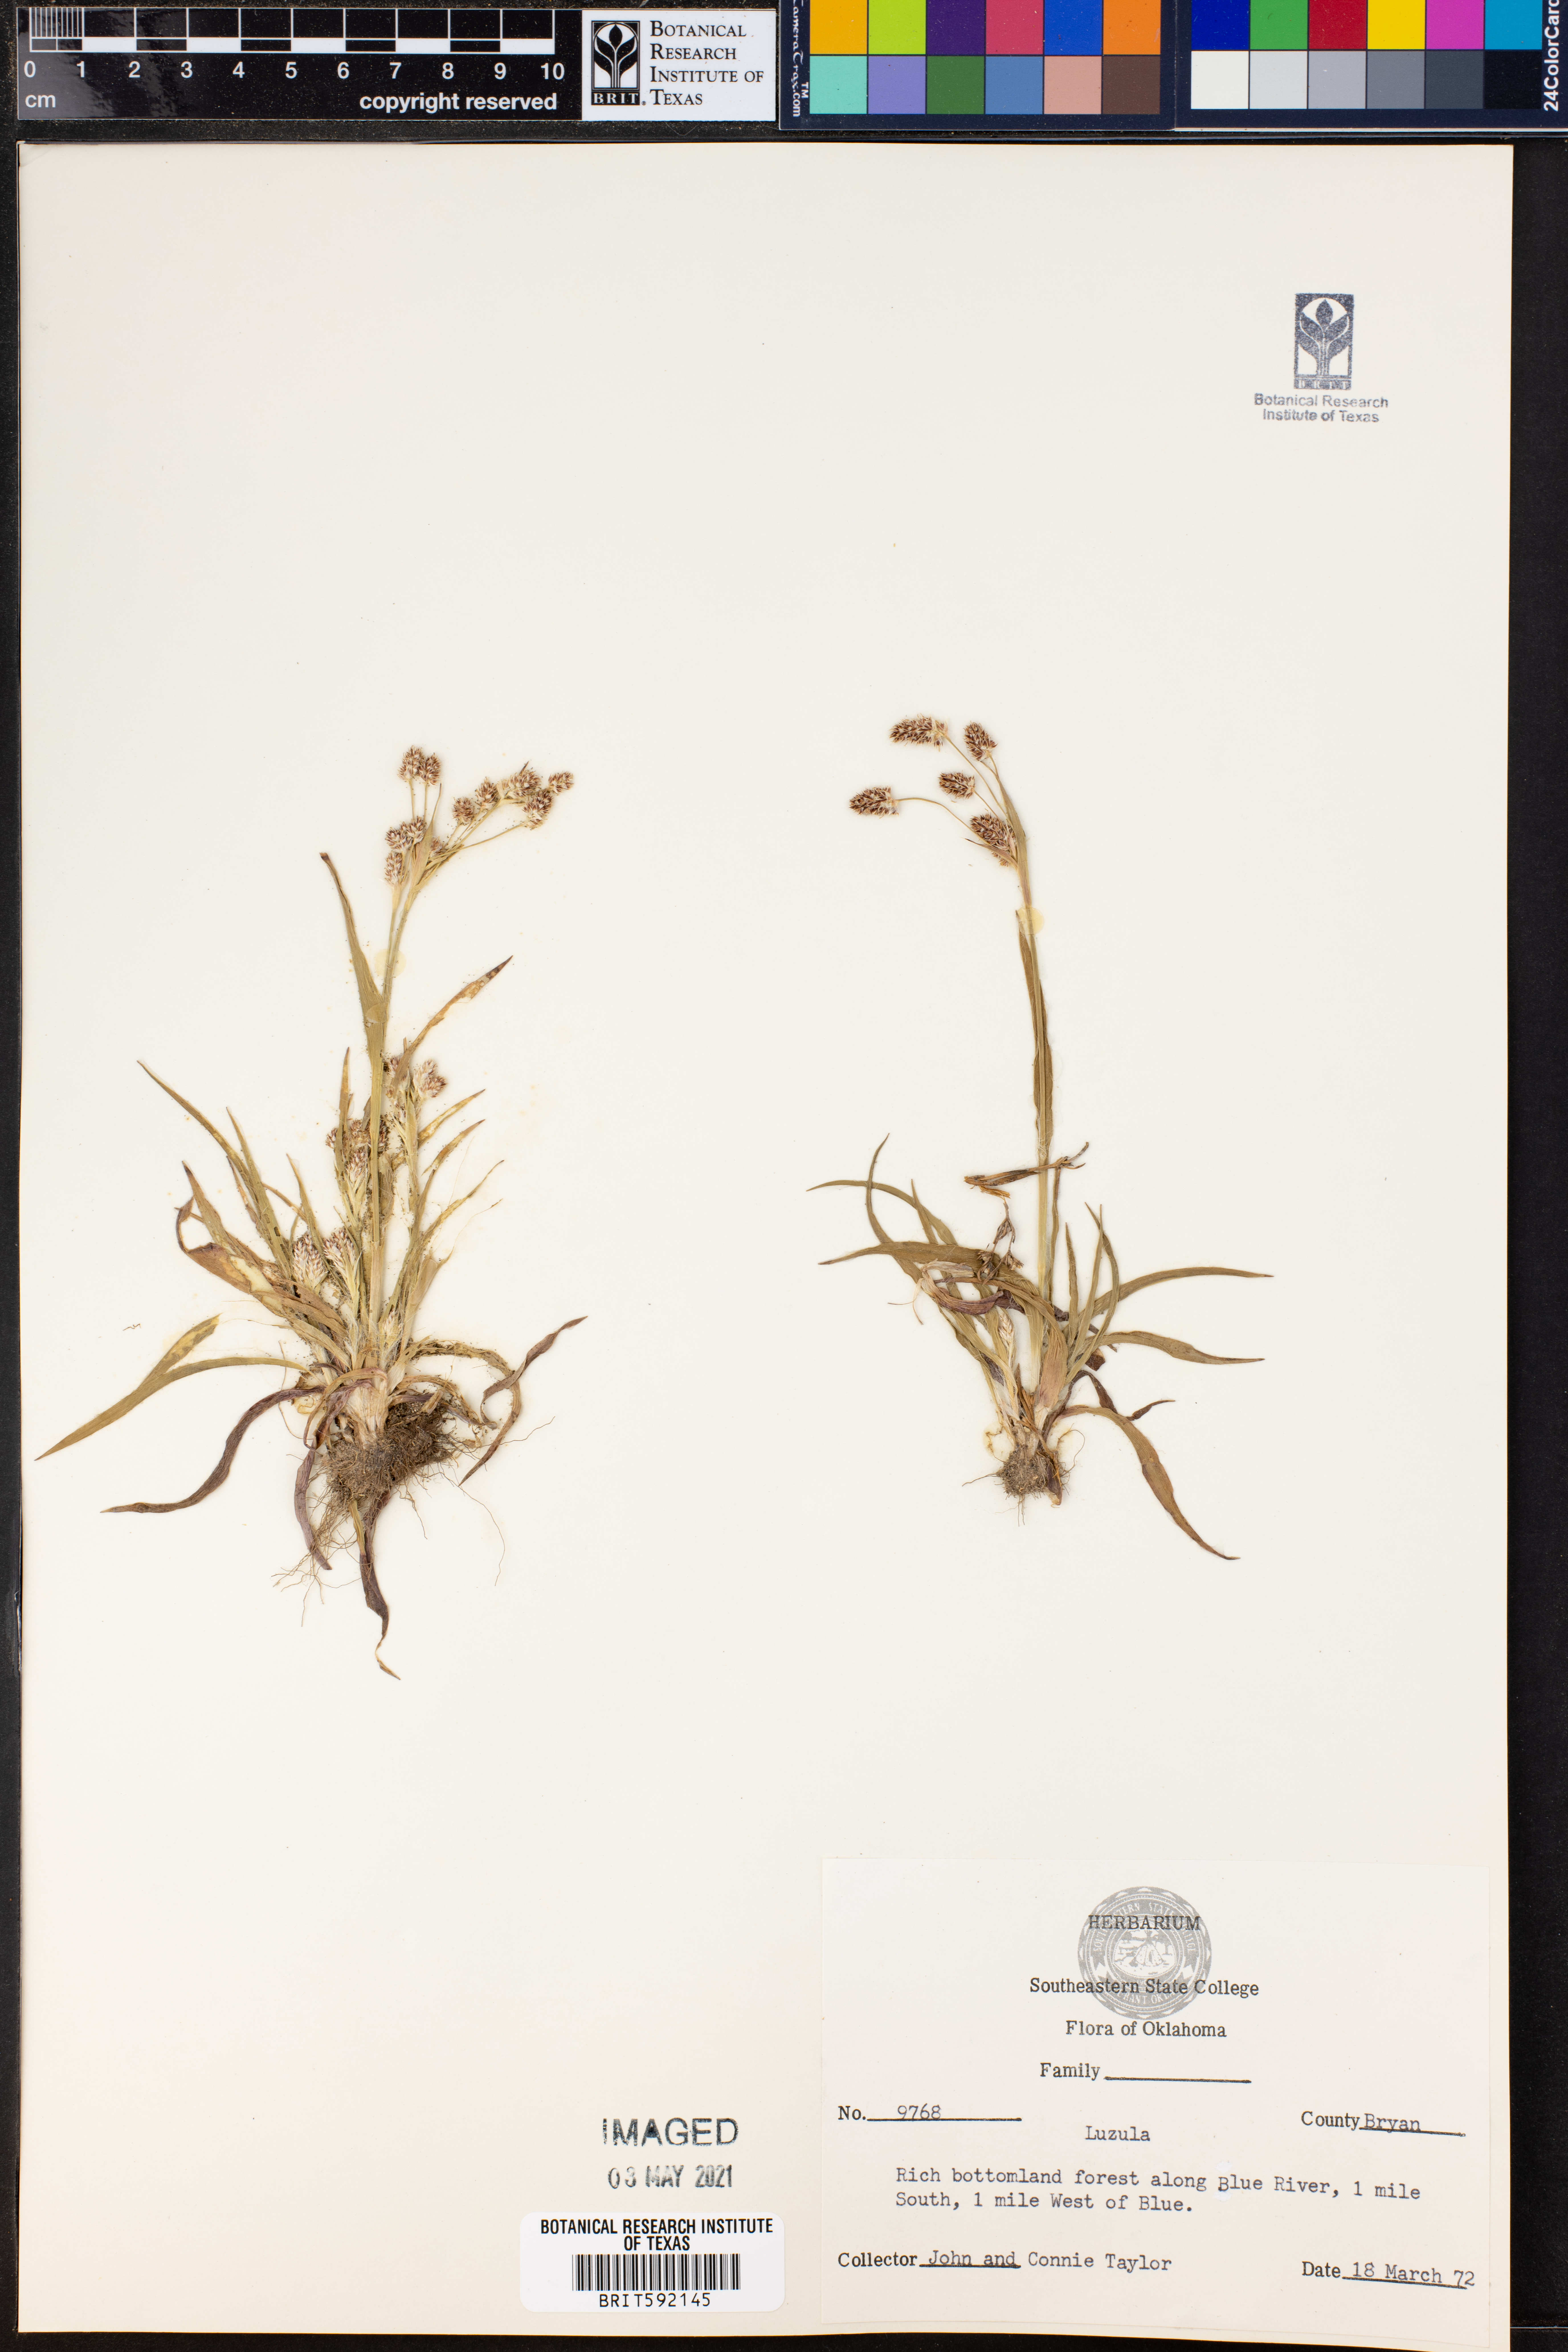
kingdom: Plantae
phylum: Tracheophyta
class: Liliopsida
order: Poales
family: Juncaceae
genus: Luzula
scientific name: Luzula
